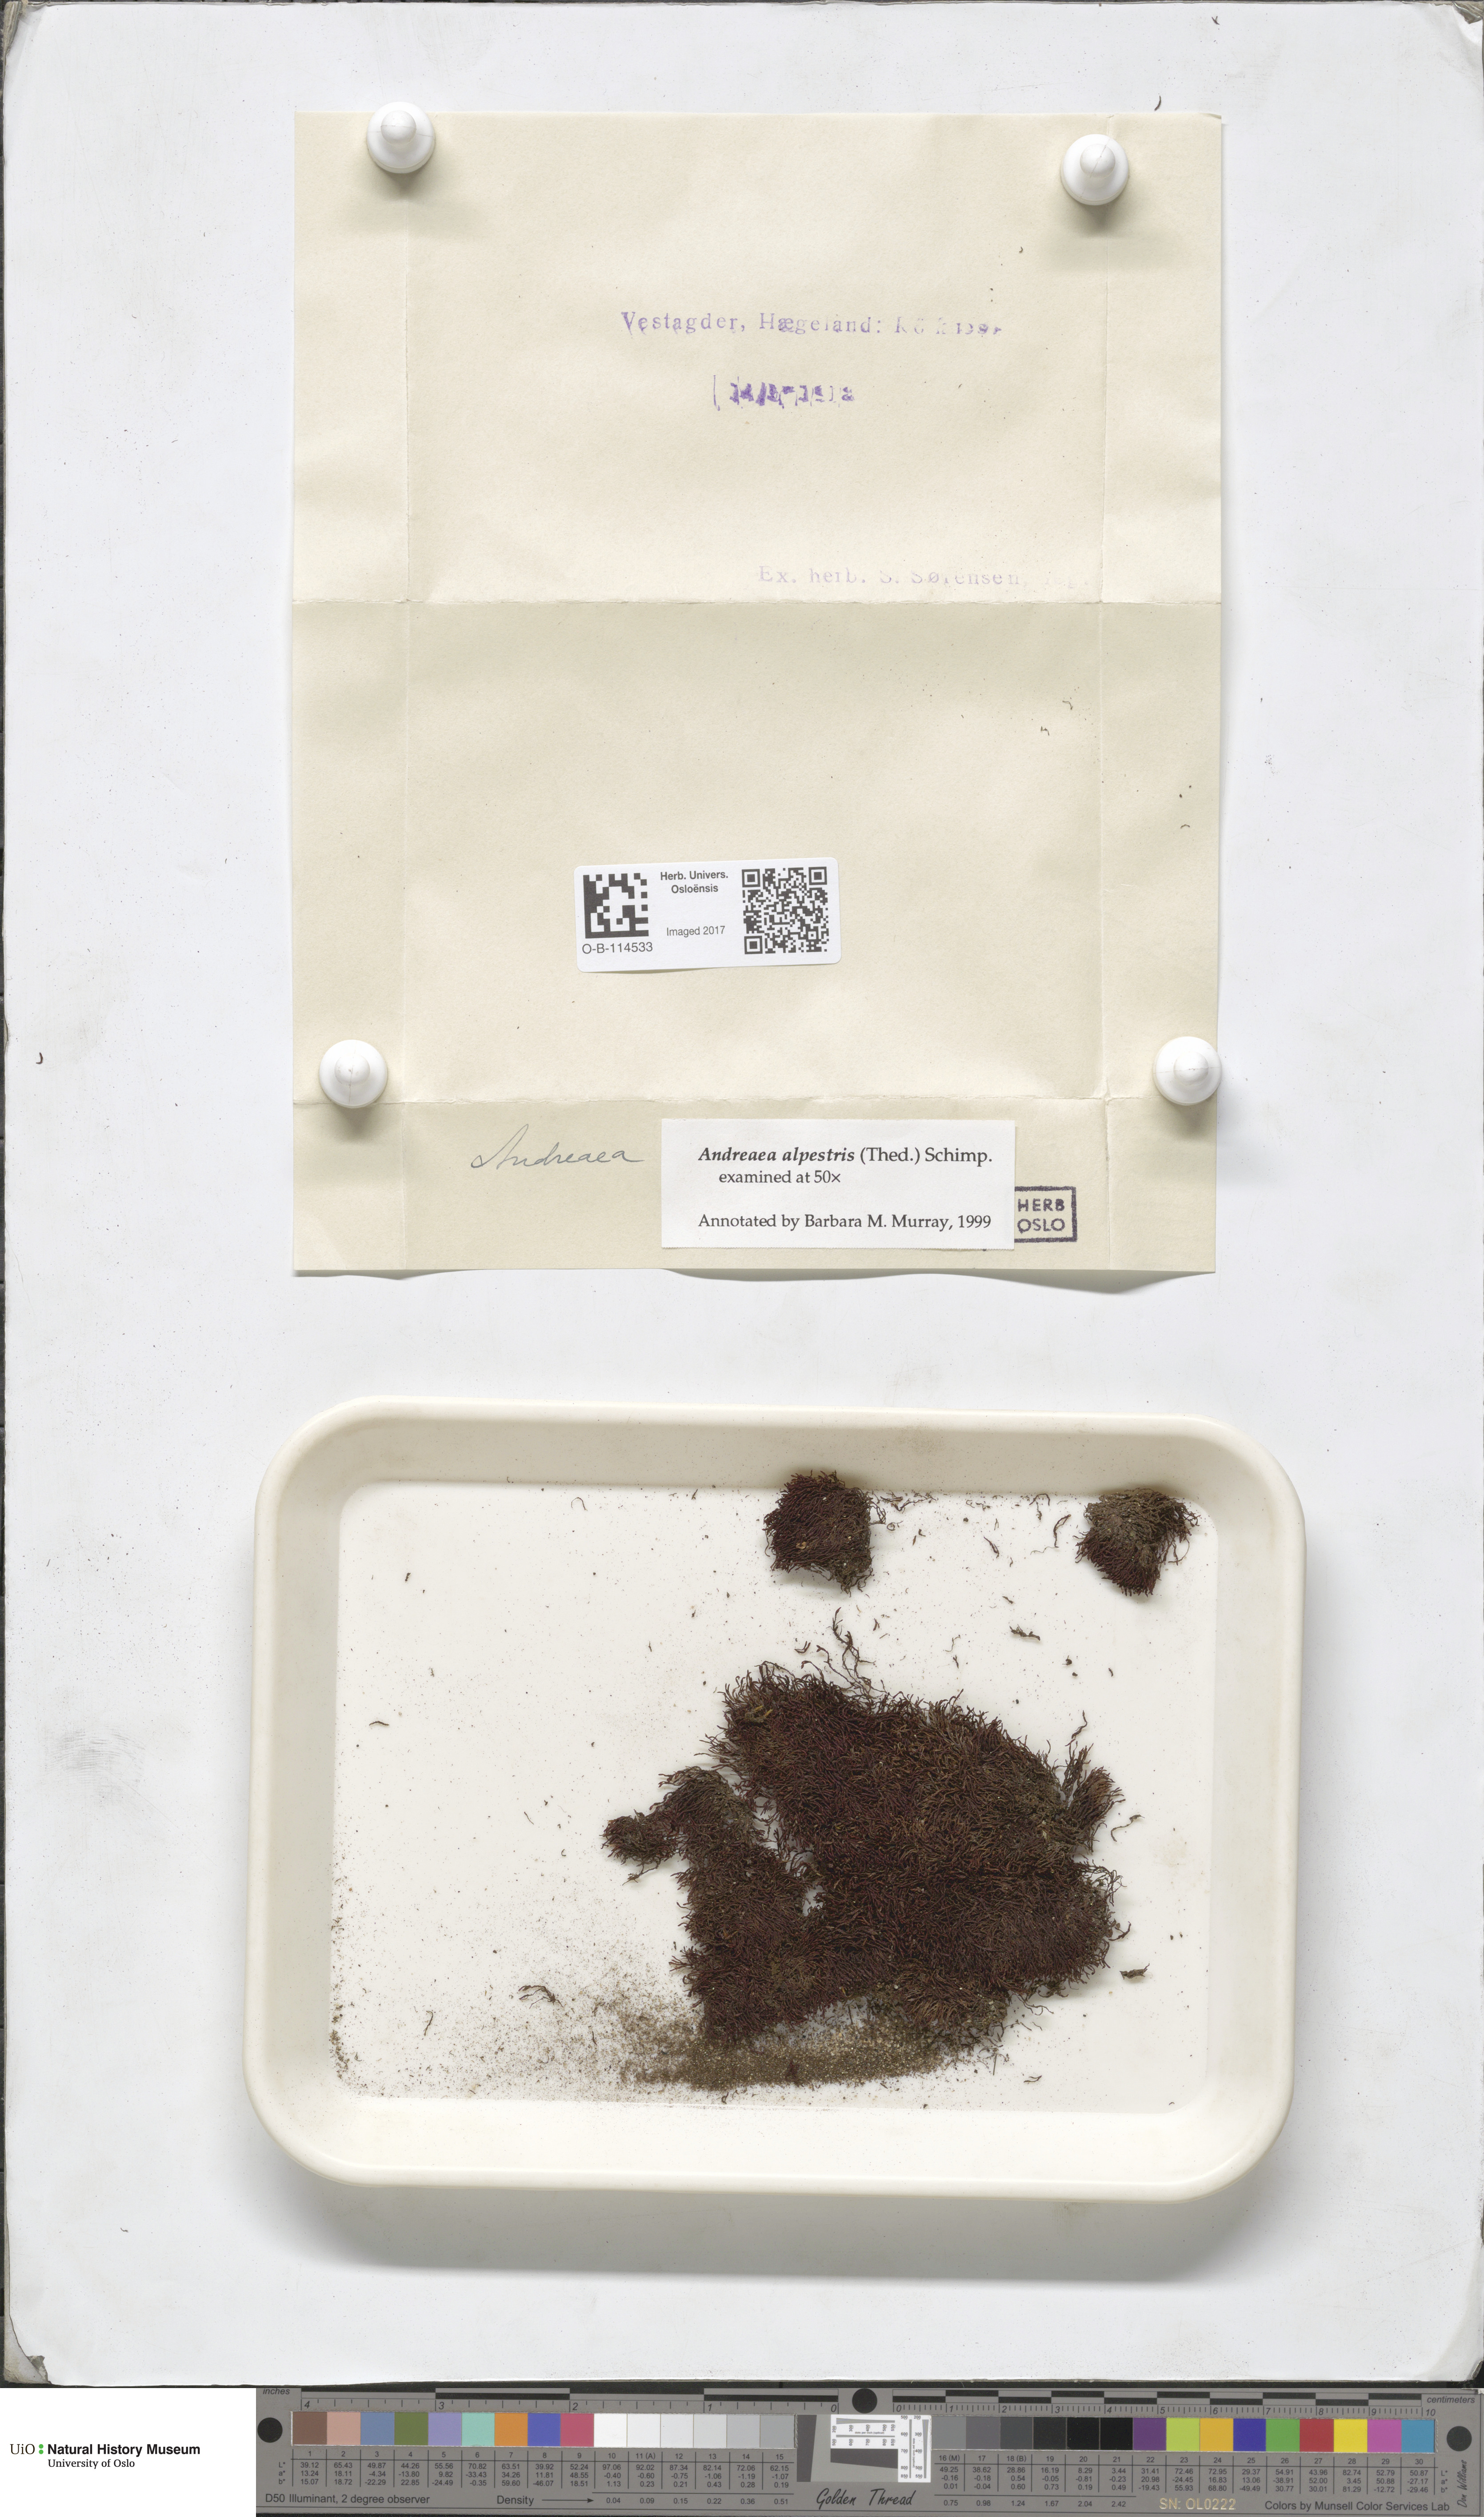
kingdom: Plantae
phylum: Bryophyta
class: Andreaeopsida
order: Andreaeales
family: Andreaeaceae
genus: Andreaea
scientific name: Andreaea alpestris
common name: Slender rock-moss
